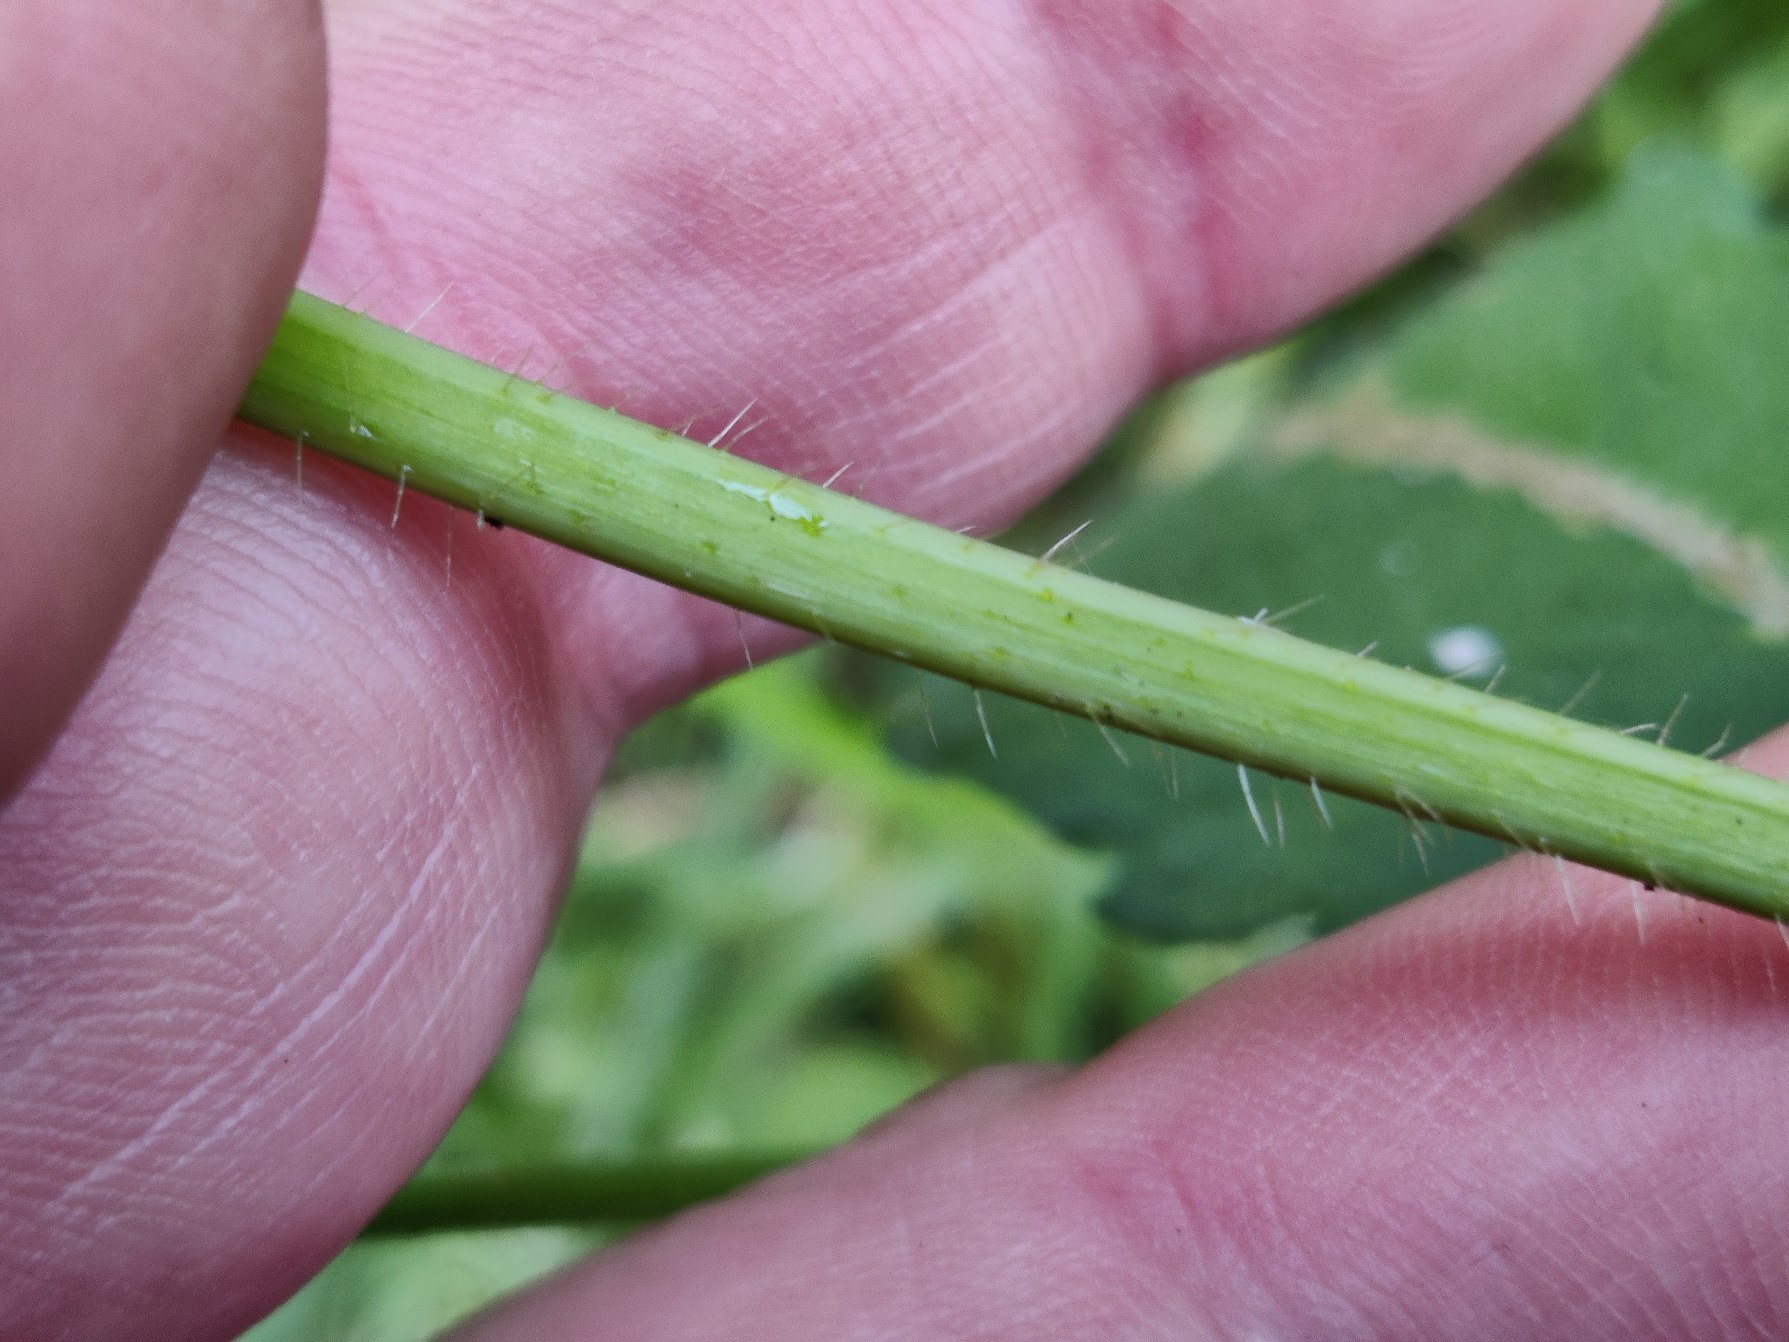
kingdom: Plantae
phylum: Tracheophyta
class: Magnoliopsida
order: Lamiales
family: Lamiaceae
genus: Galeopsis
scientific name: Galeopsis tetrahit
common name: Almindelig hanekro
